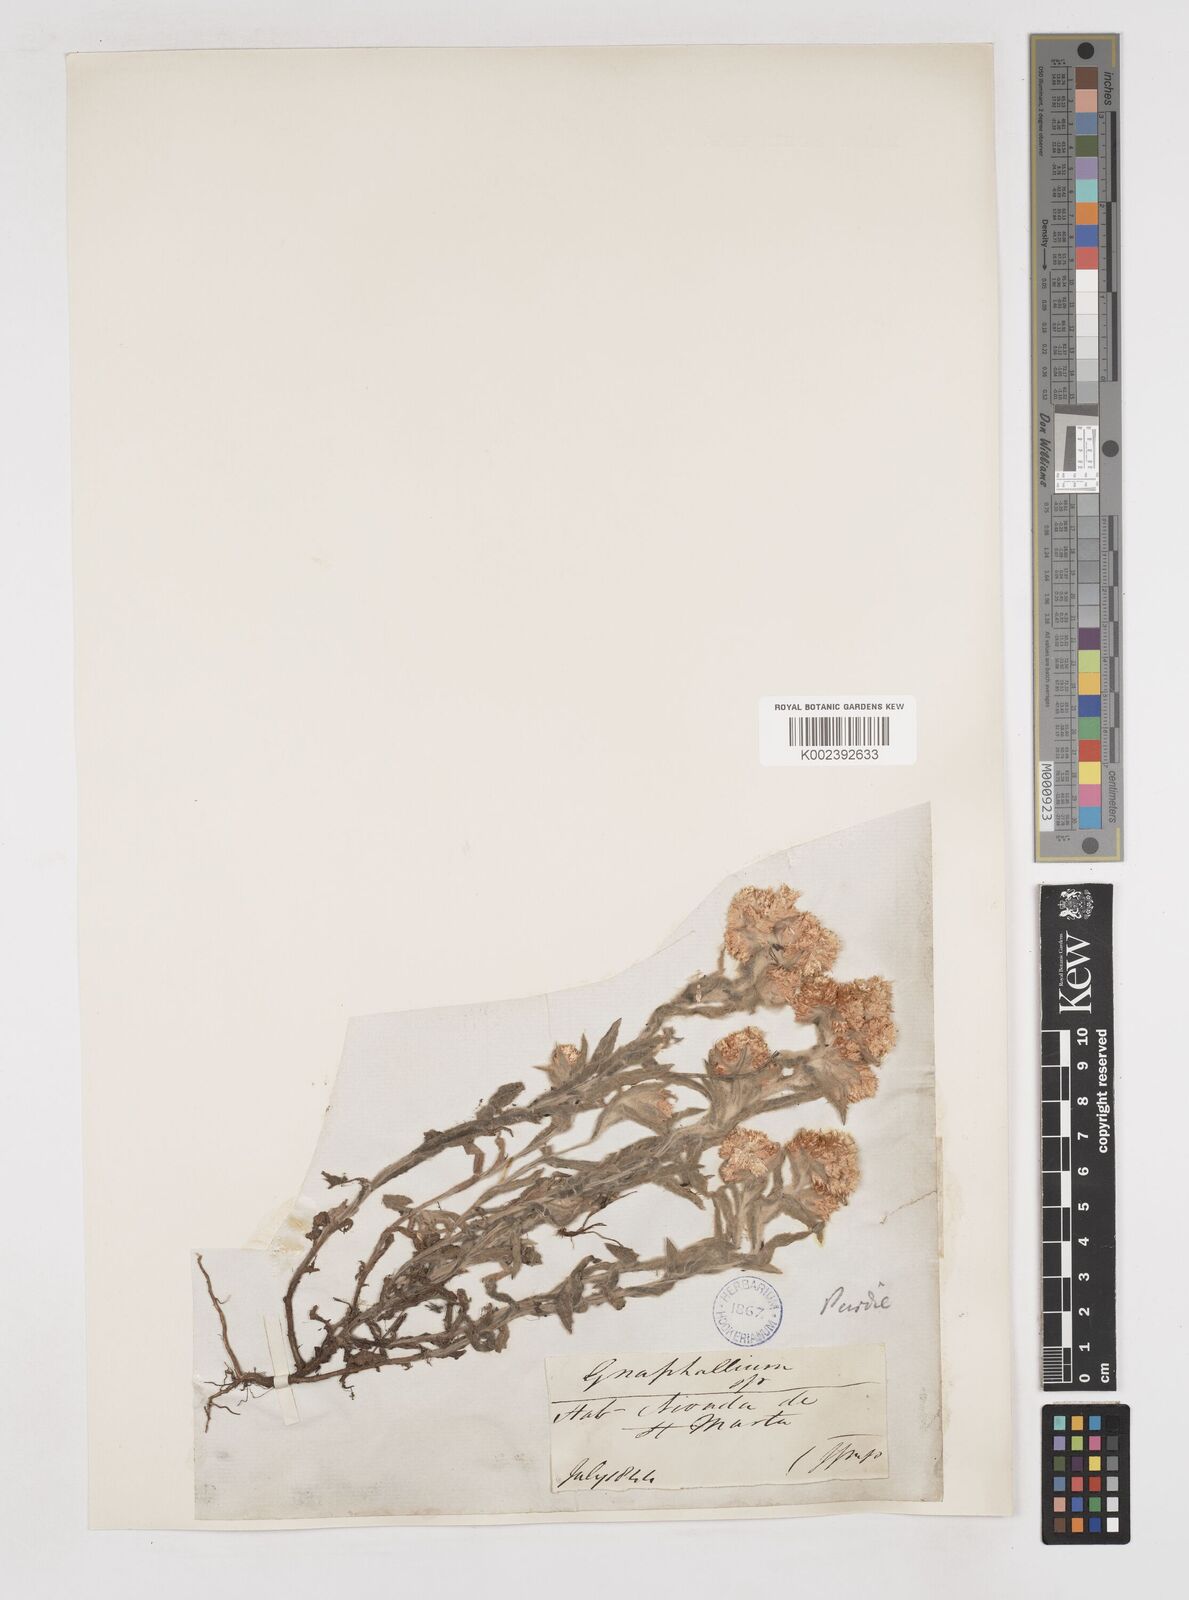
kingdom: Plantae
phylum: Tracheophyta
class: Magnoliopsida
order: Asterales
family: Asteraceae
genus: Gnaphalium
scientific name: Gnaphalium
